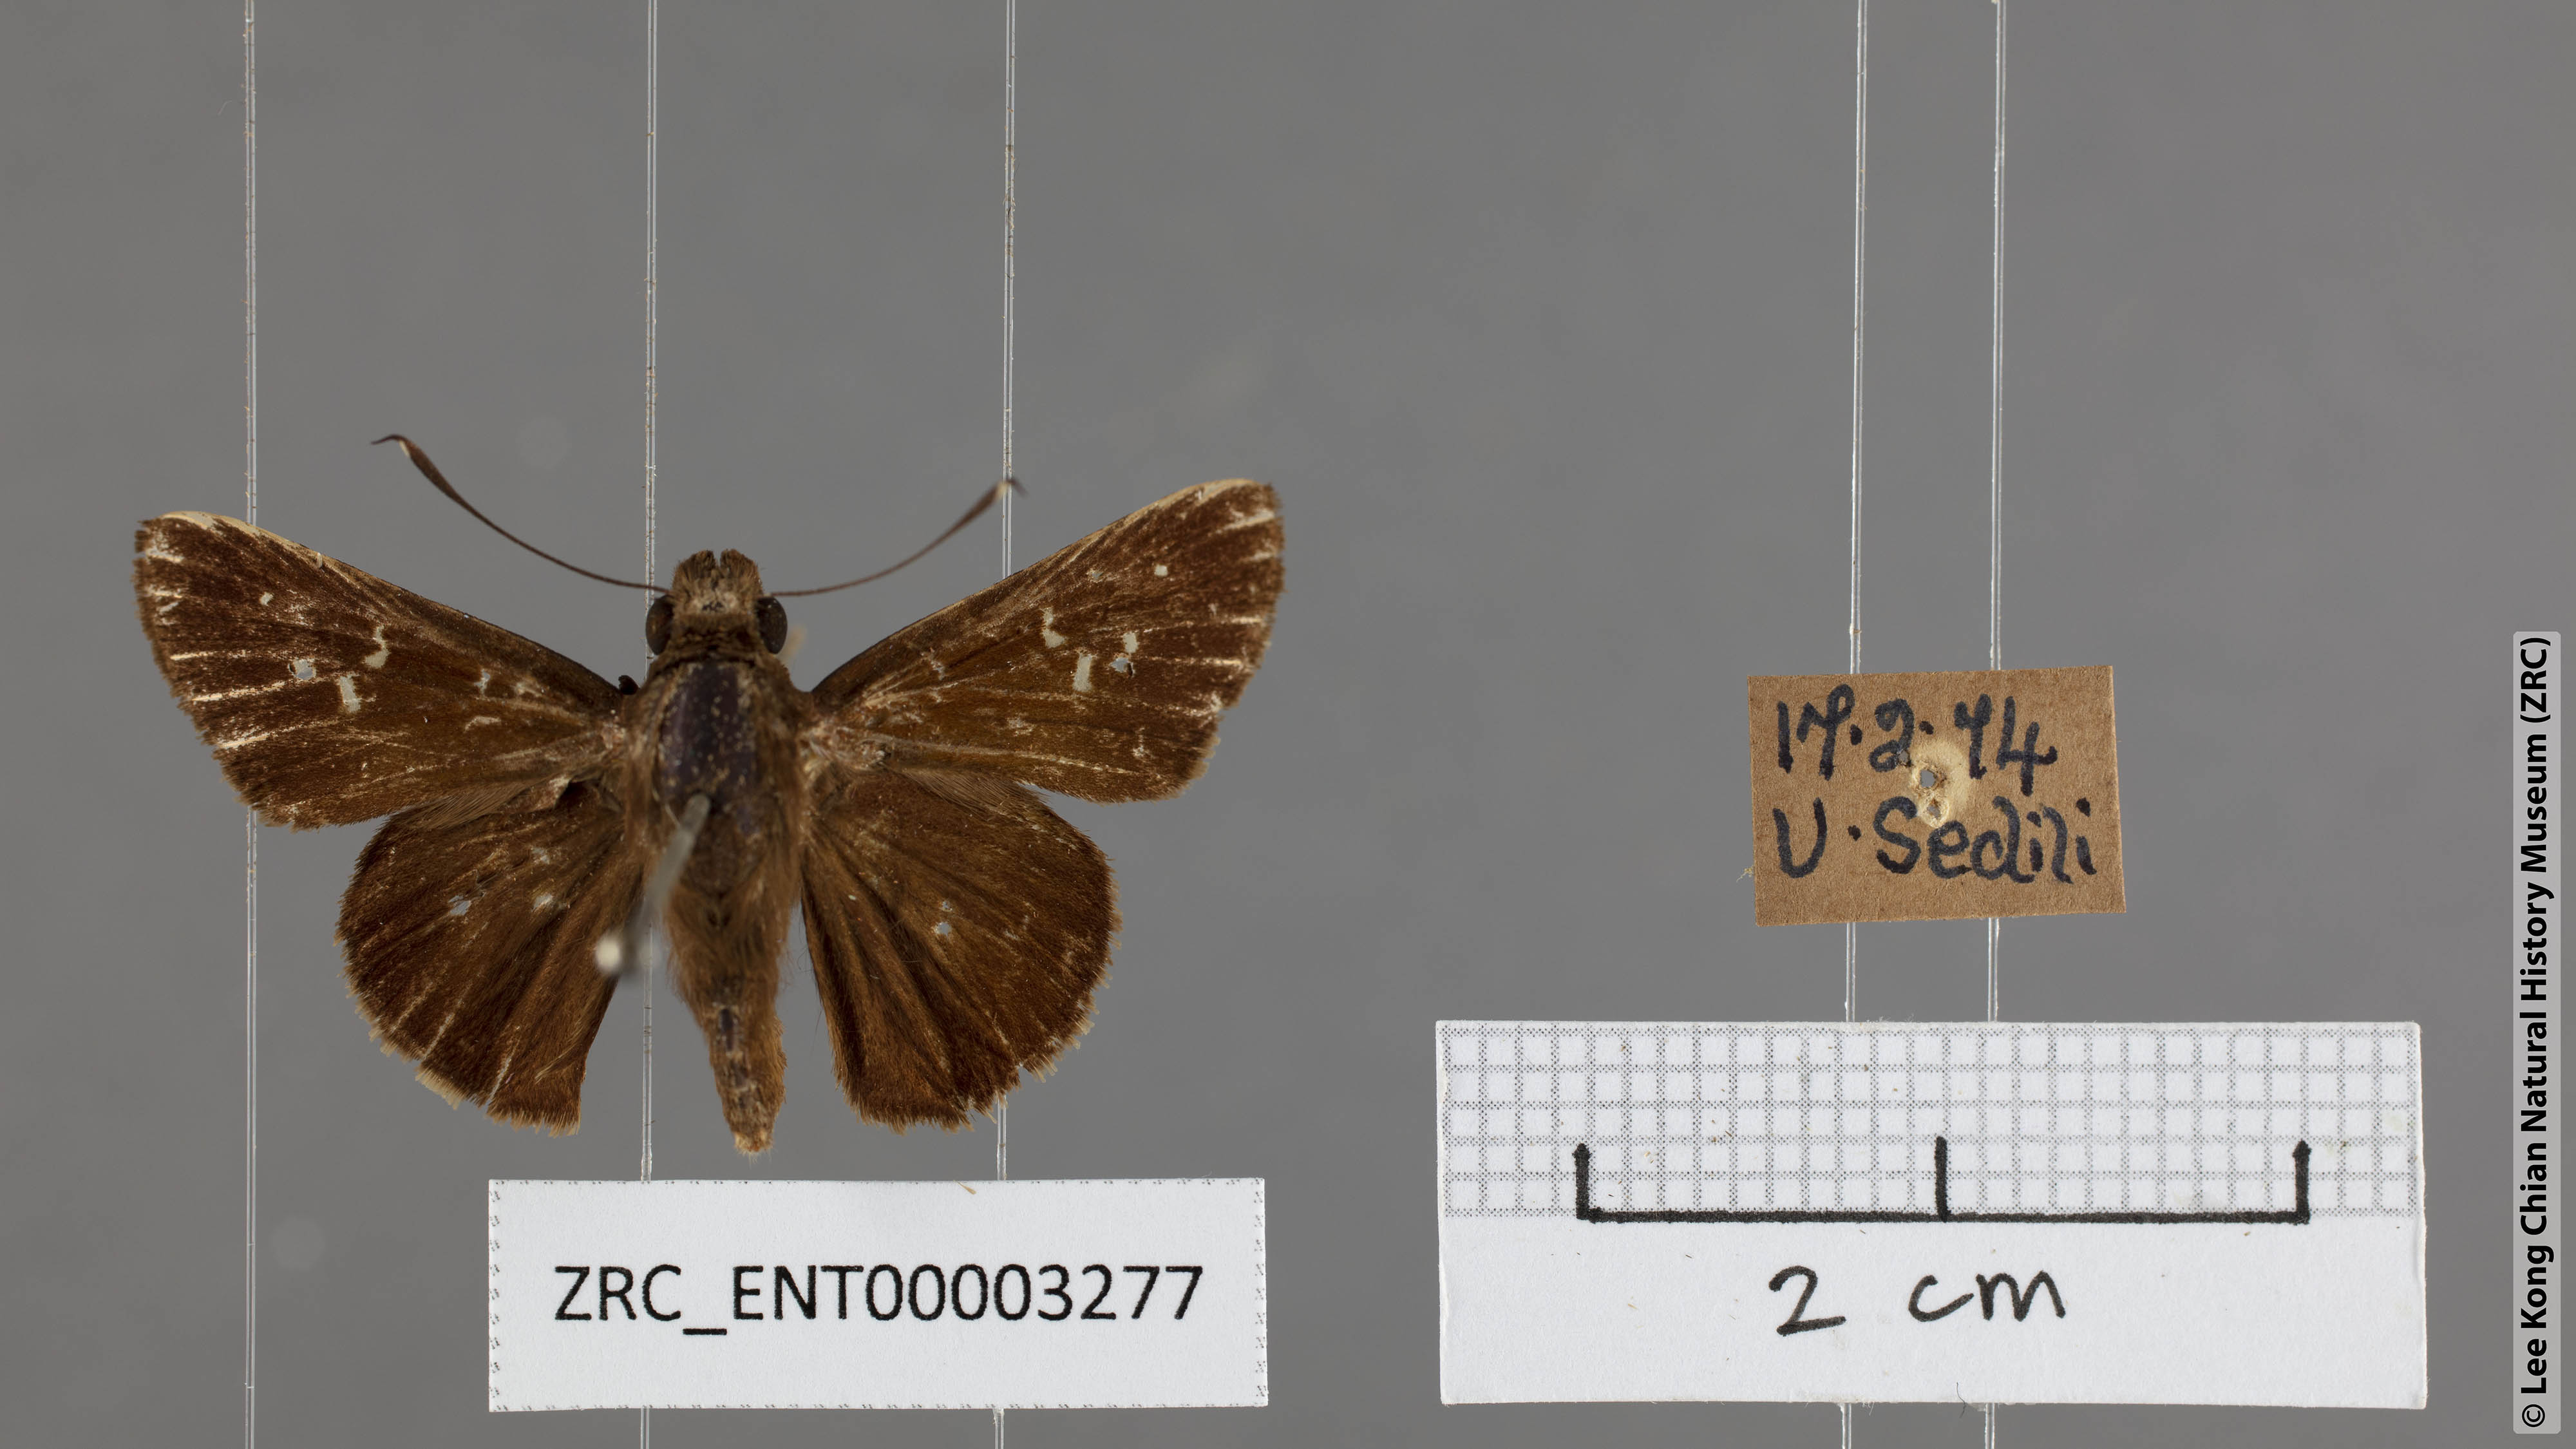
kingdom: Animalia
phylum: Arthropoda
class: Insecta
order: Lepidoptera
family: Hesperiidae
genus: Hyarotis
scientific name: Hyarotis microstictum
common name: Small brush flitter
